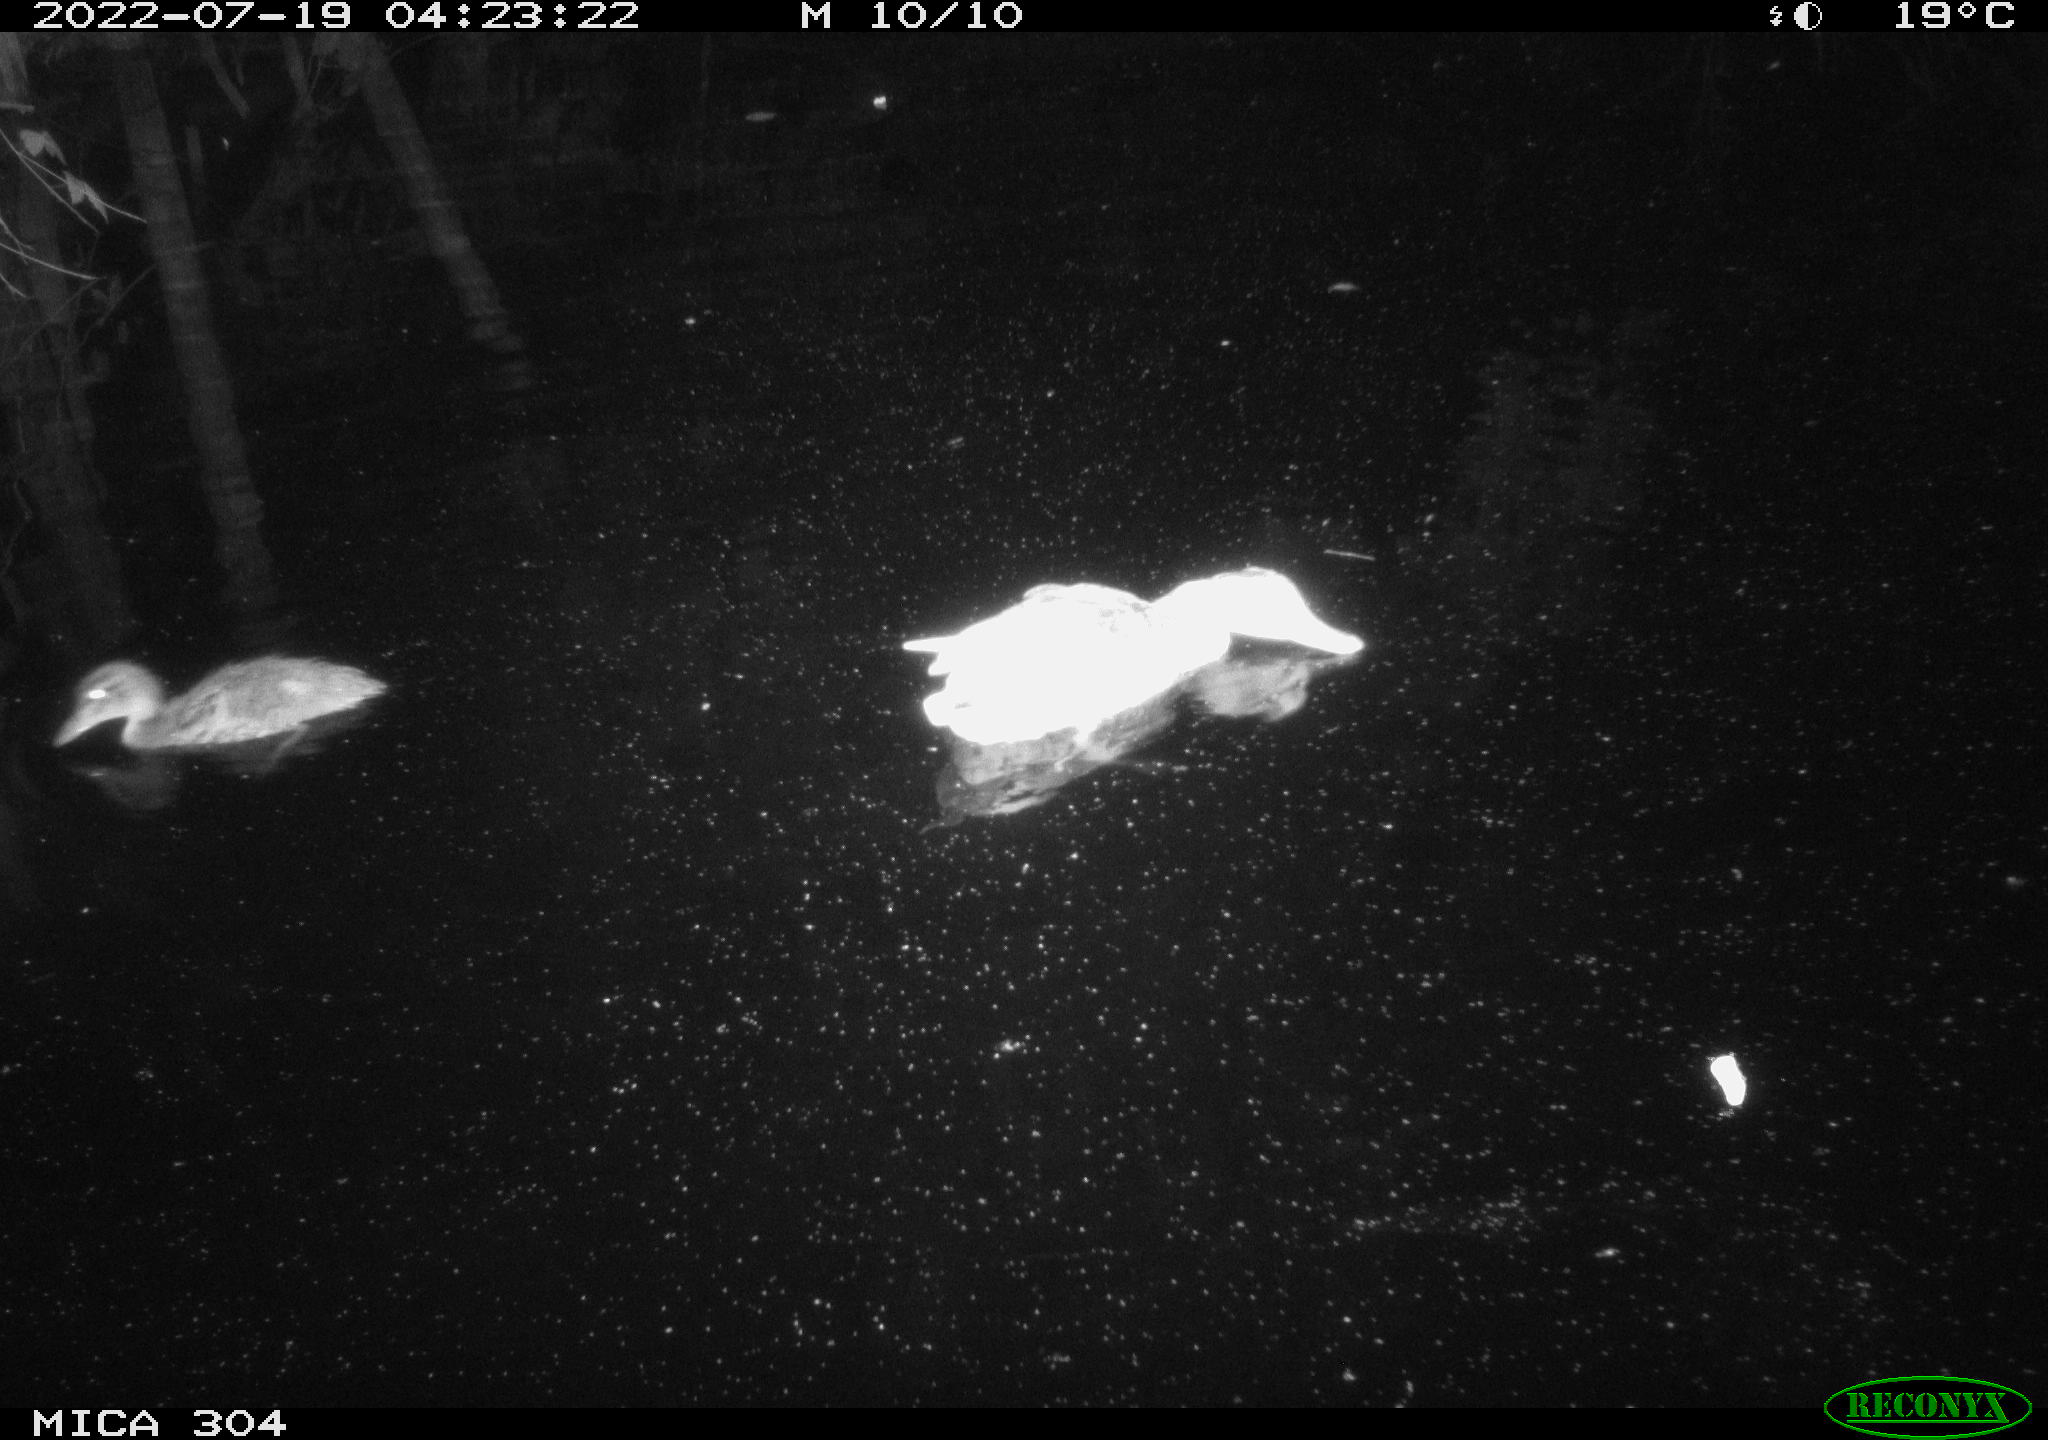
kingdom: Animalia
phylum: Chordata
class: Aves
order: Anseriformes
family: Anatidae
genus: Anas
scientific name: Anas platyrhynchos
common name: Mallard
